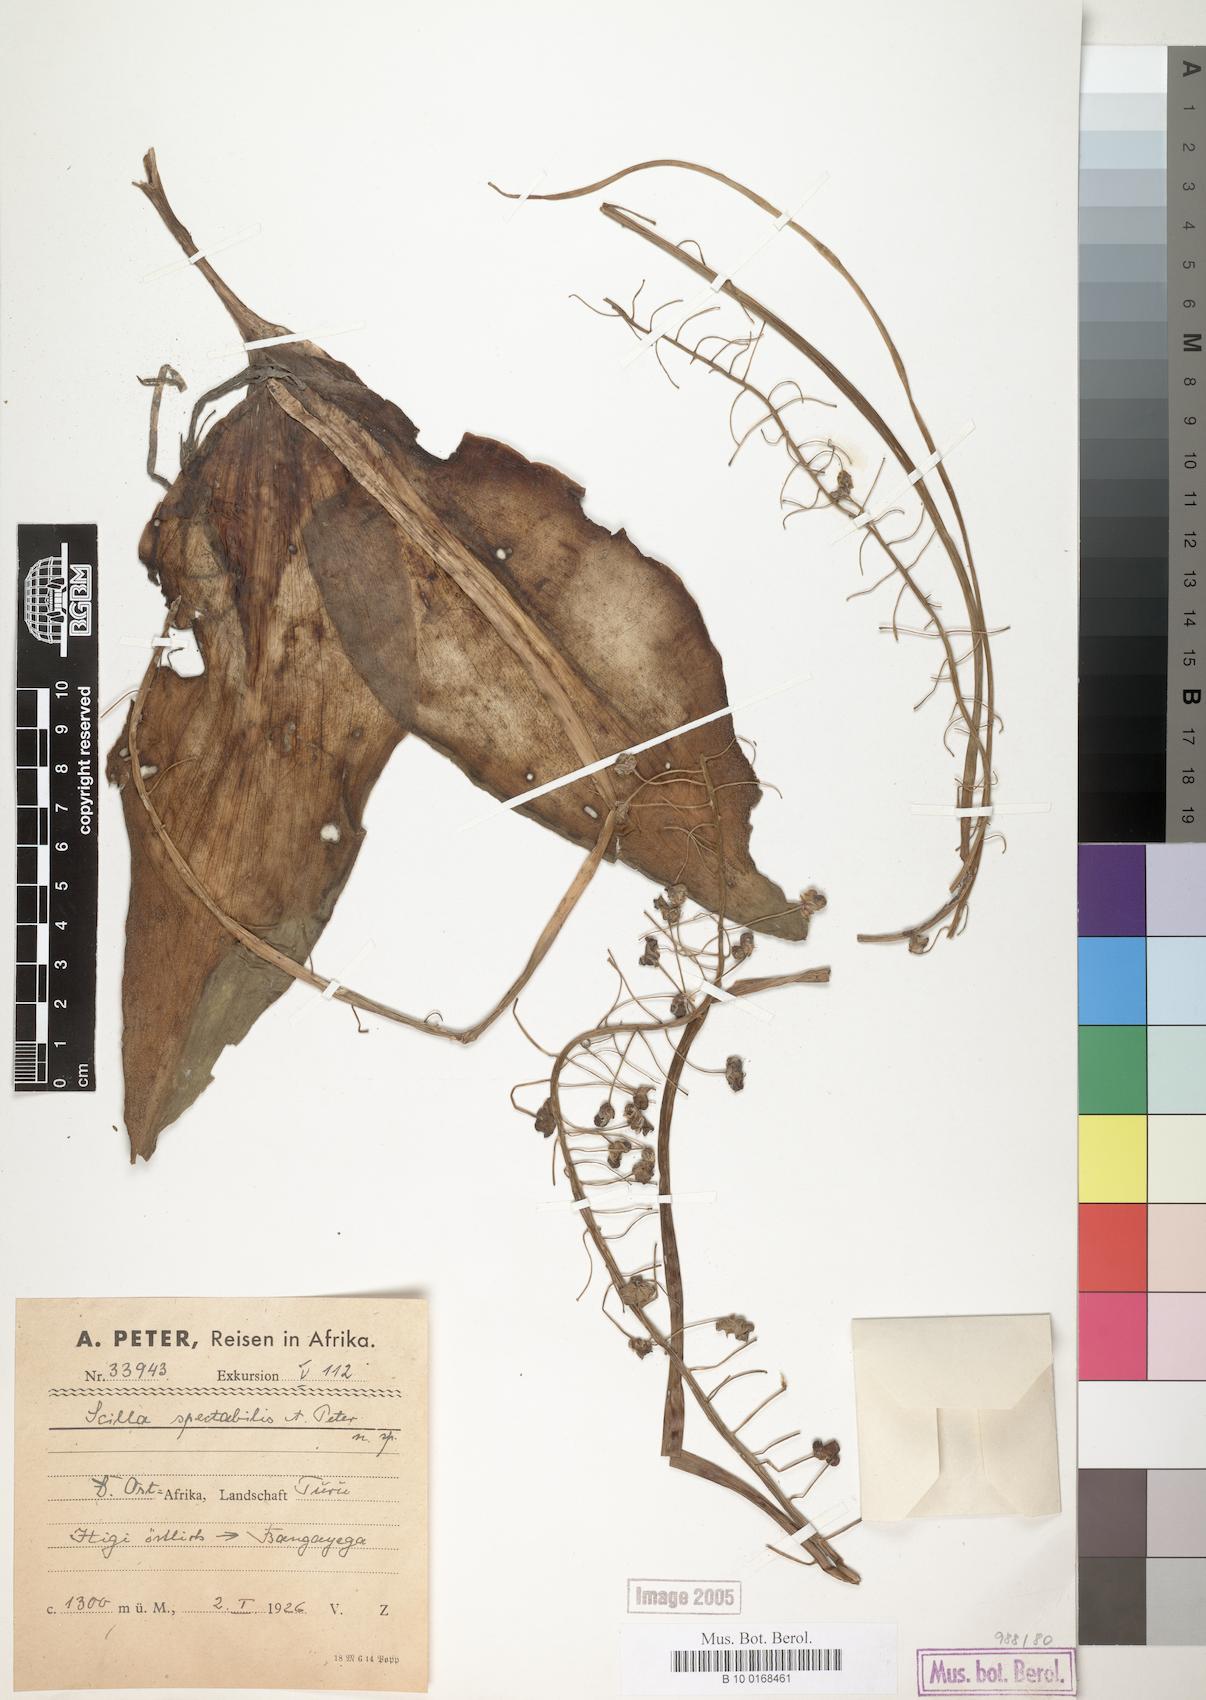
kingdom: Plantae
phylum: Tracheophyta
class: Liliopsida
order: Asparagales
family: Asparagaceae
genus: Scilla
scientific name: Scilla
